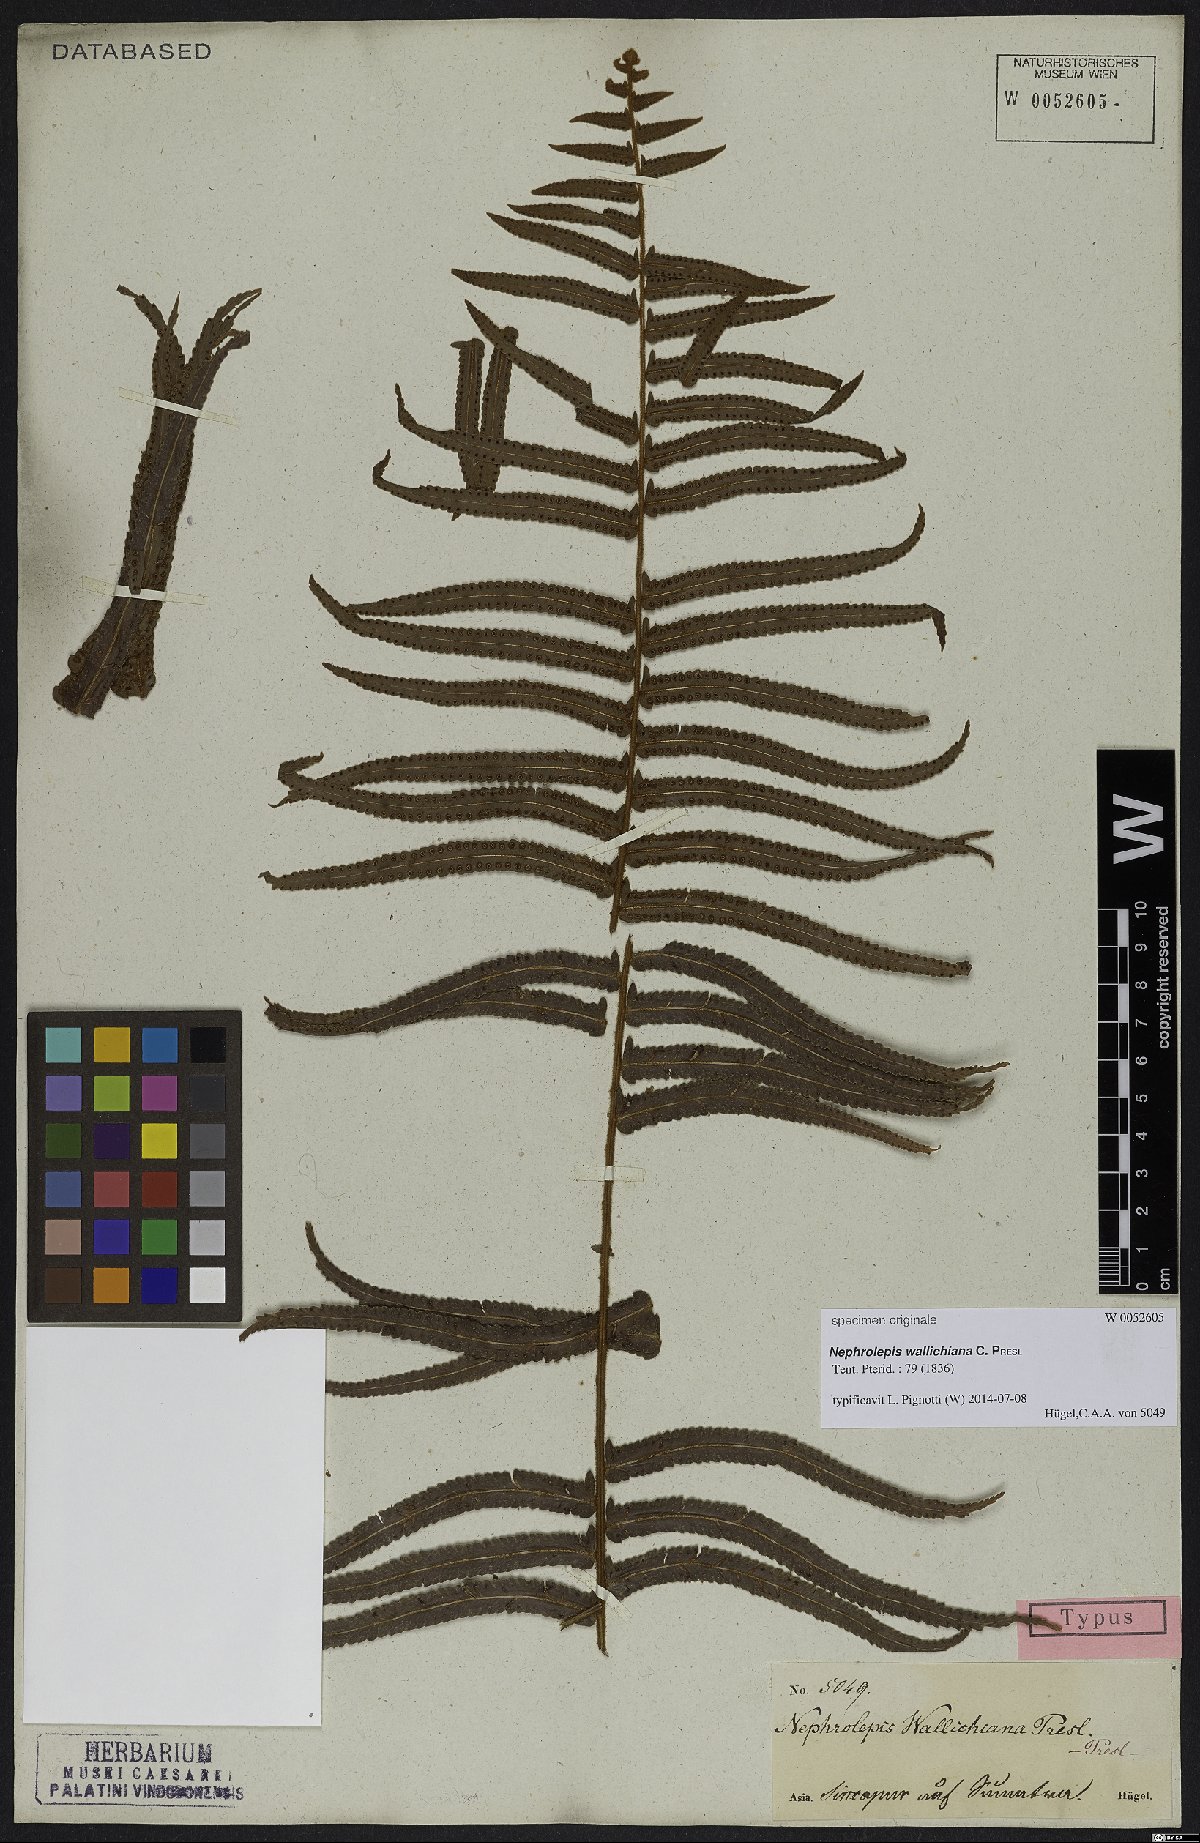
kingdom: Plantae
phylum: Tracheophyta
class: Polypodiopsida
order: Polypodiales
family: Nephrolepidaceae
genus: Nephrolepis
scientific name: Nephrolepis hirsutula
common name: Asian sword fern
